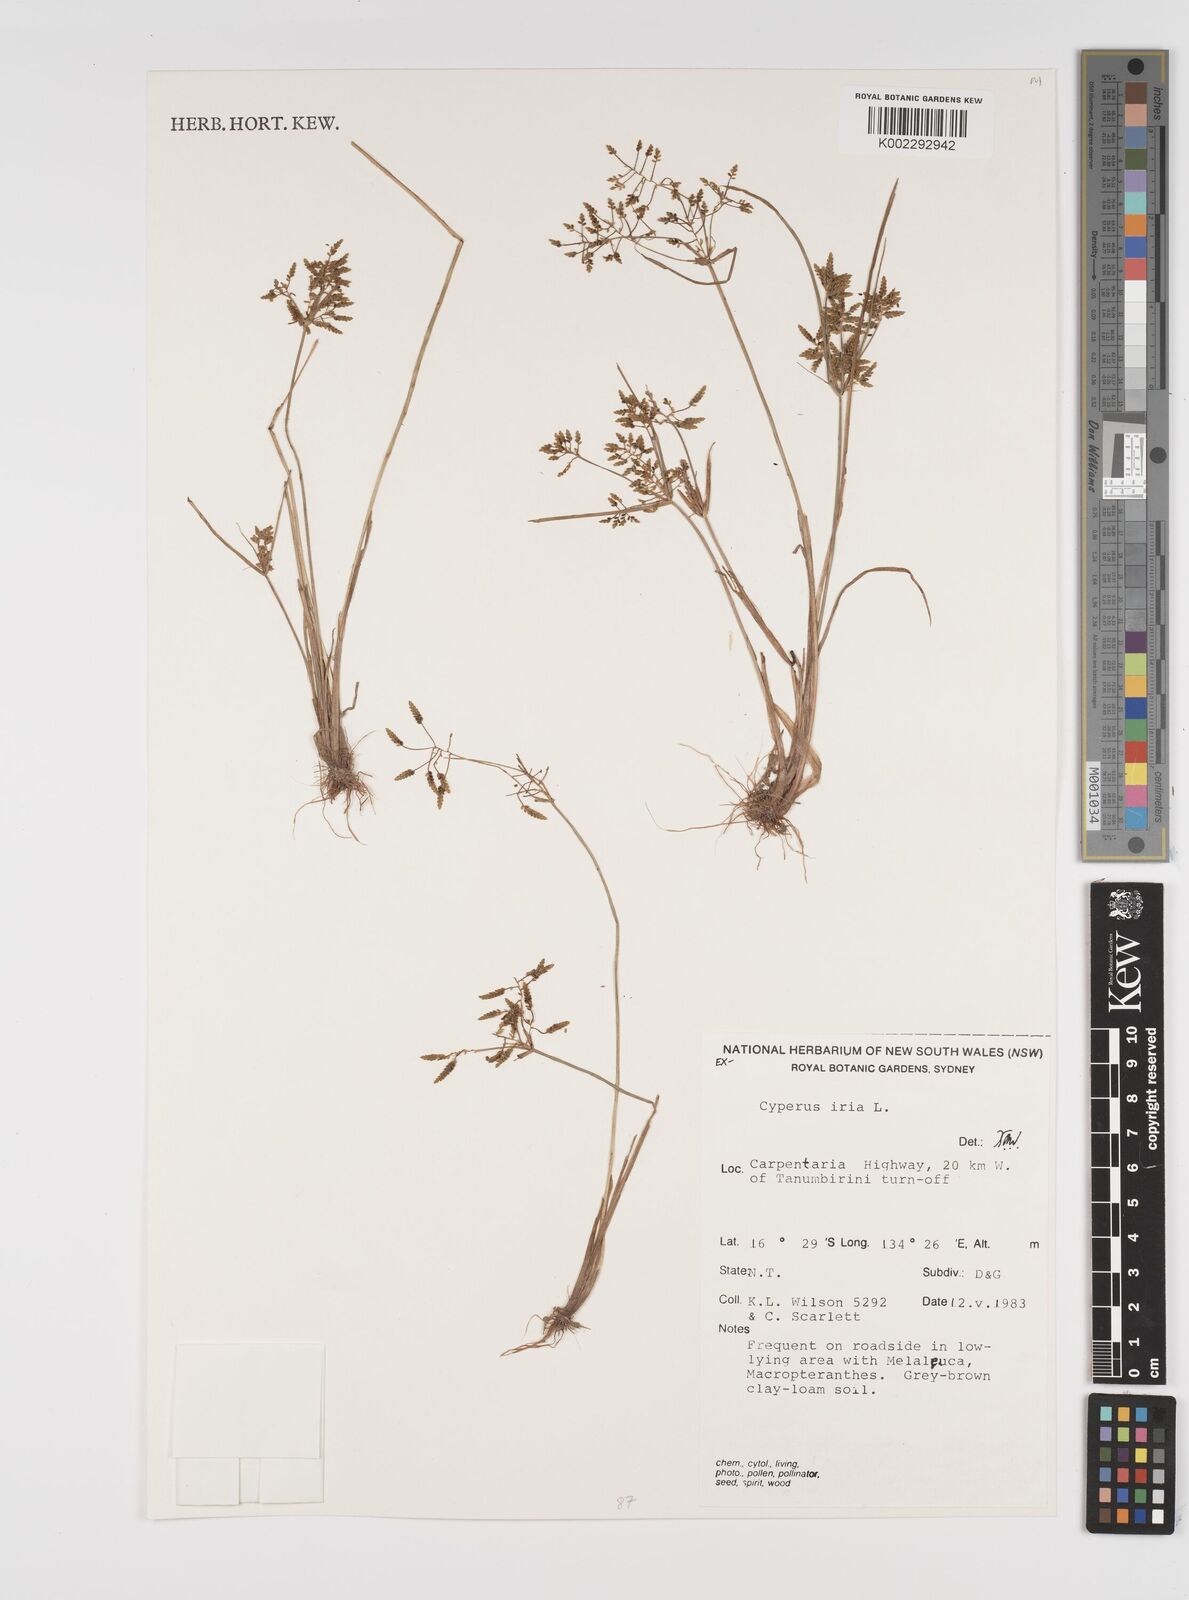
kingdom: Plantae
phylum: Tracheophyta
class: Liliopsida
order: Poales
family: Cyperaceae
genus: Cyperus
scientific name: Cyperus iria
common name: Ricefield flatsedge
